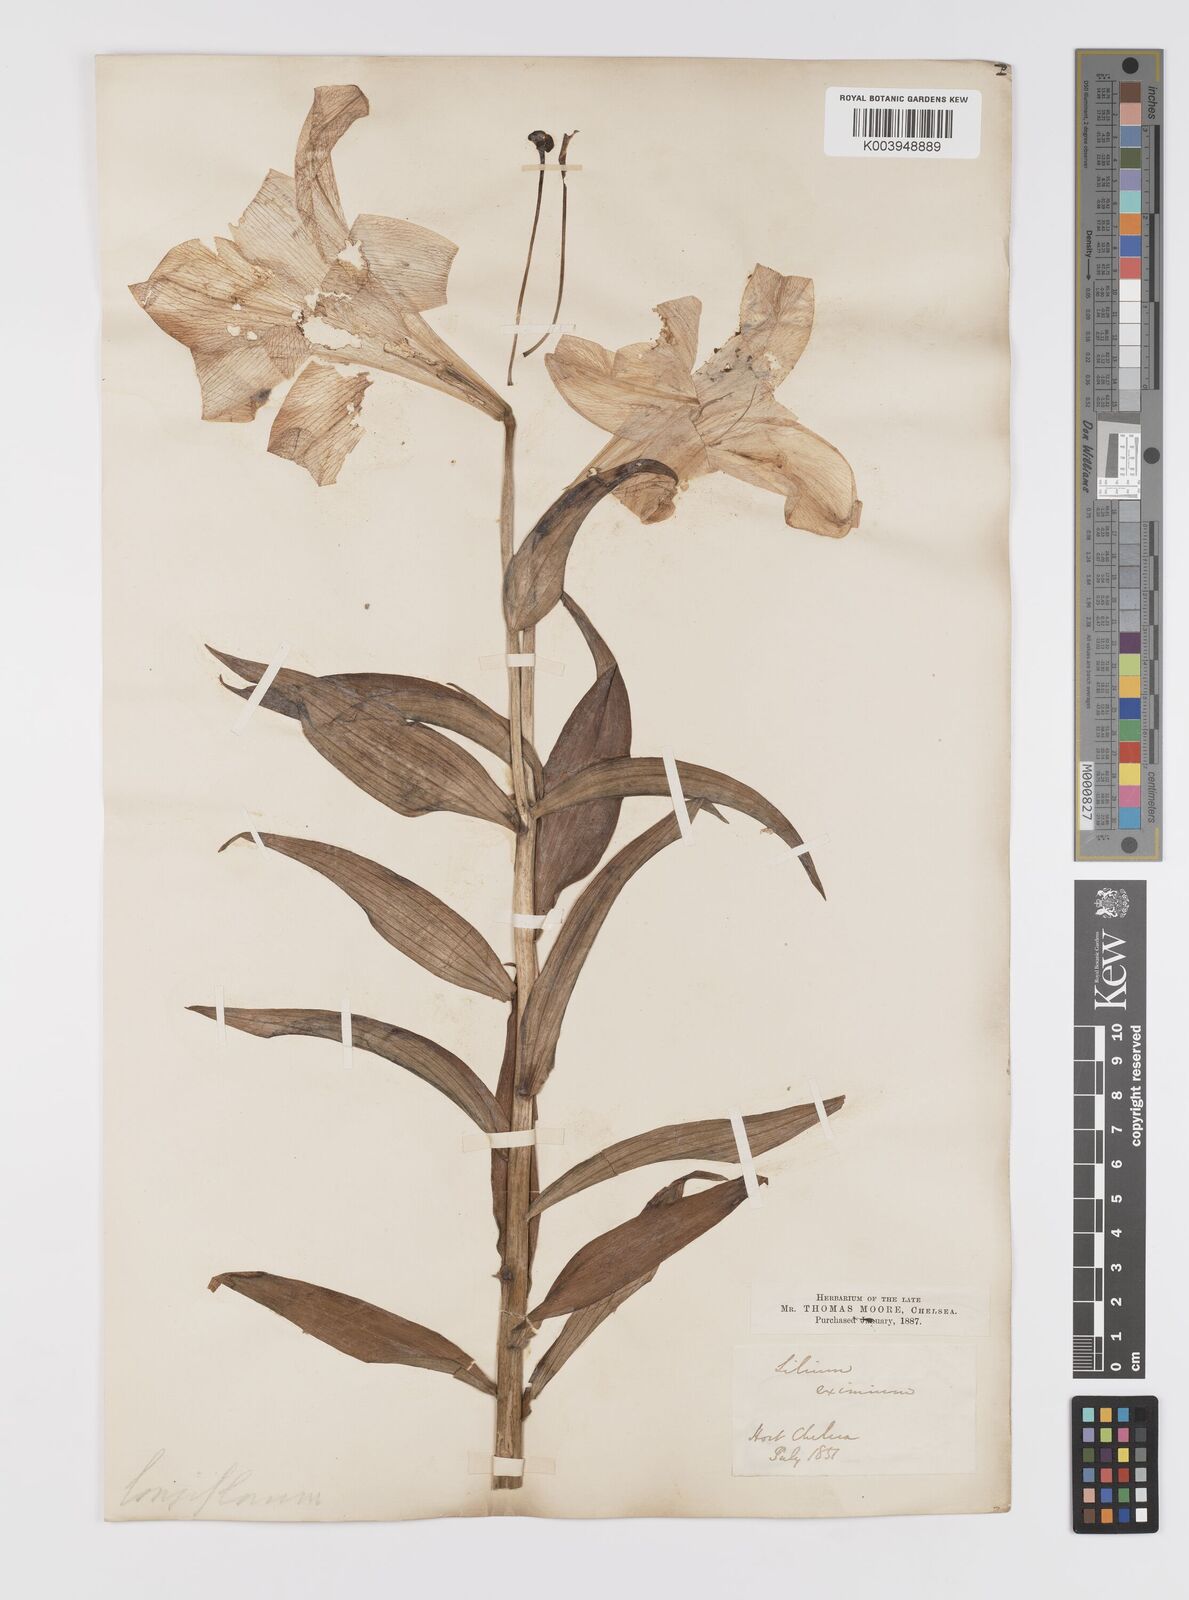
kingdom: Plantae
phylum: Tracheophyta
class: Liliopsida
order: Liliales
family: Liliaceae
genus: Lilium
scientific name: Lilium longiflorum
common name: Easter lily
